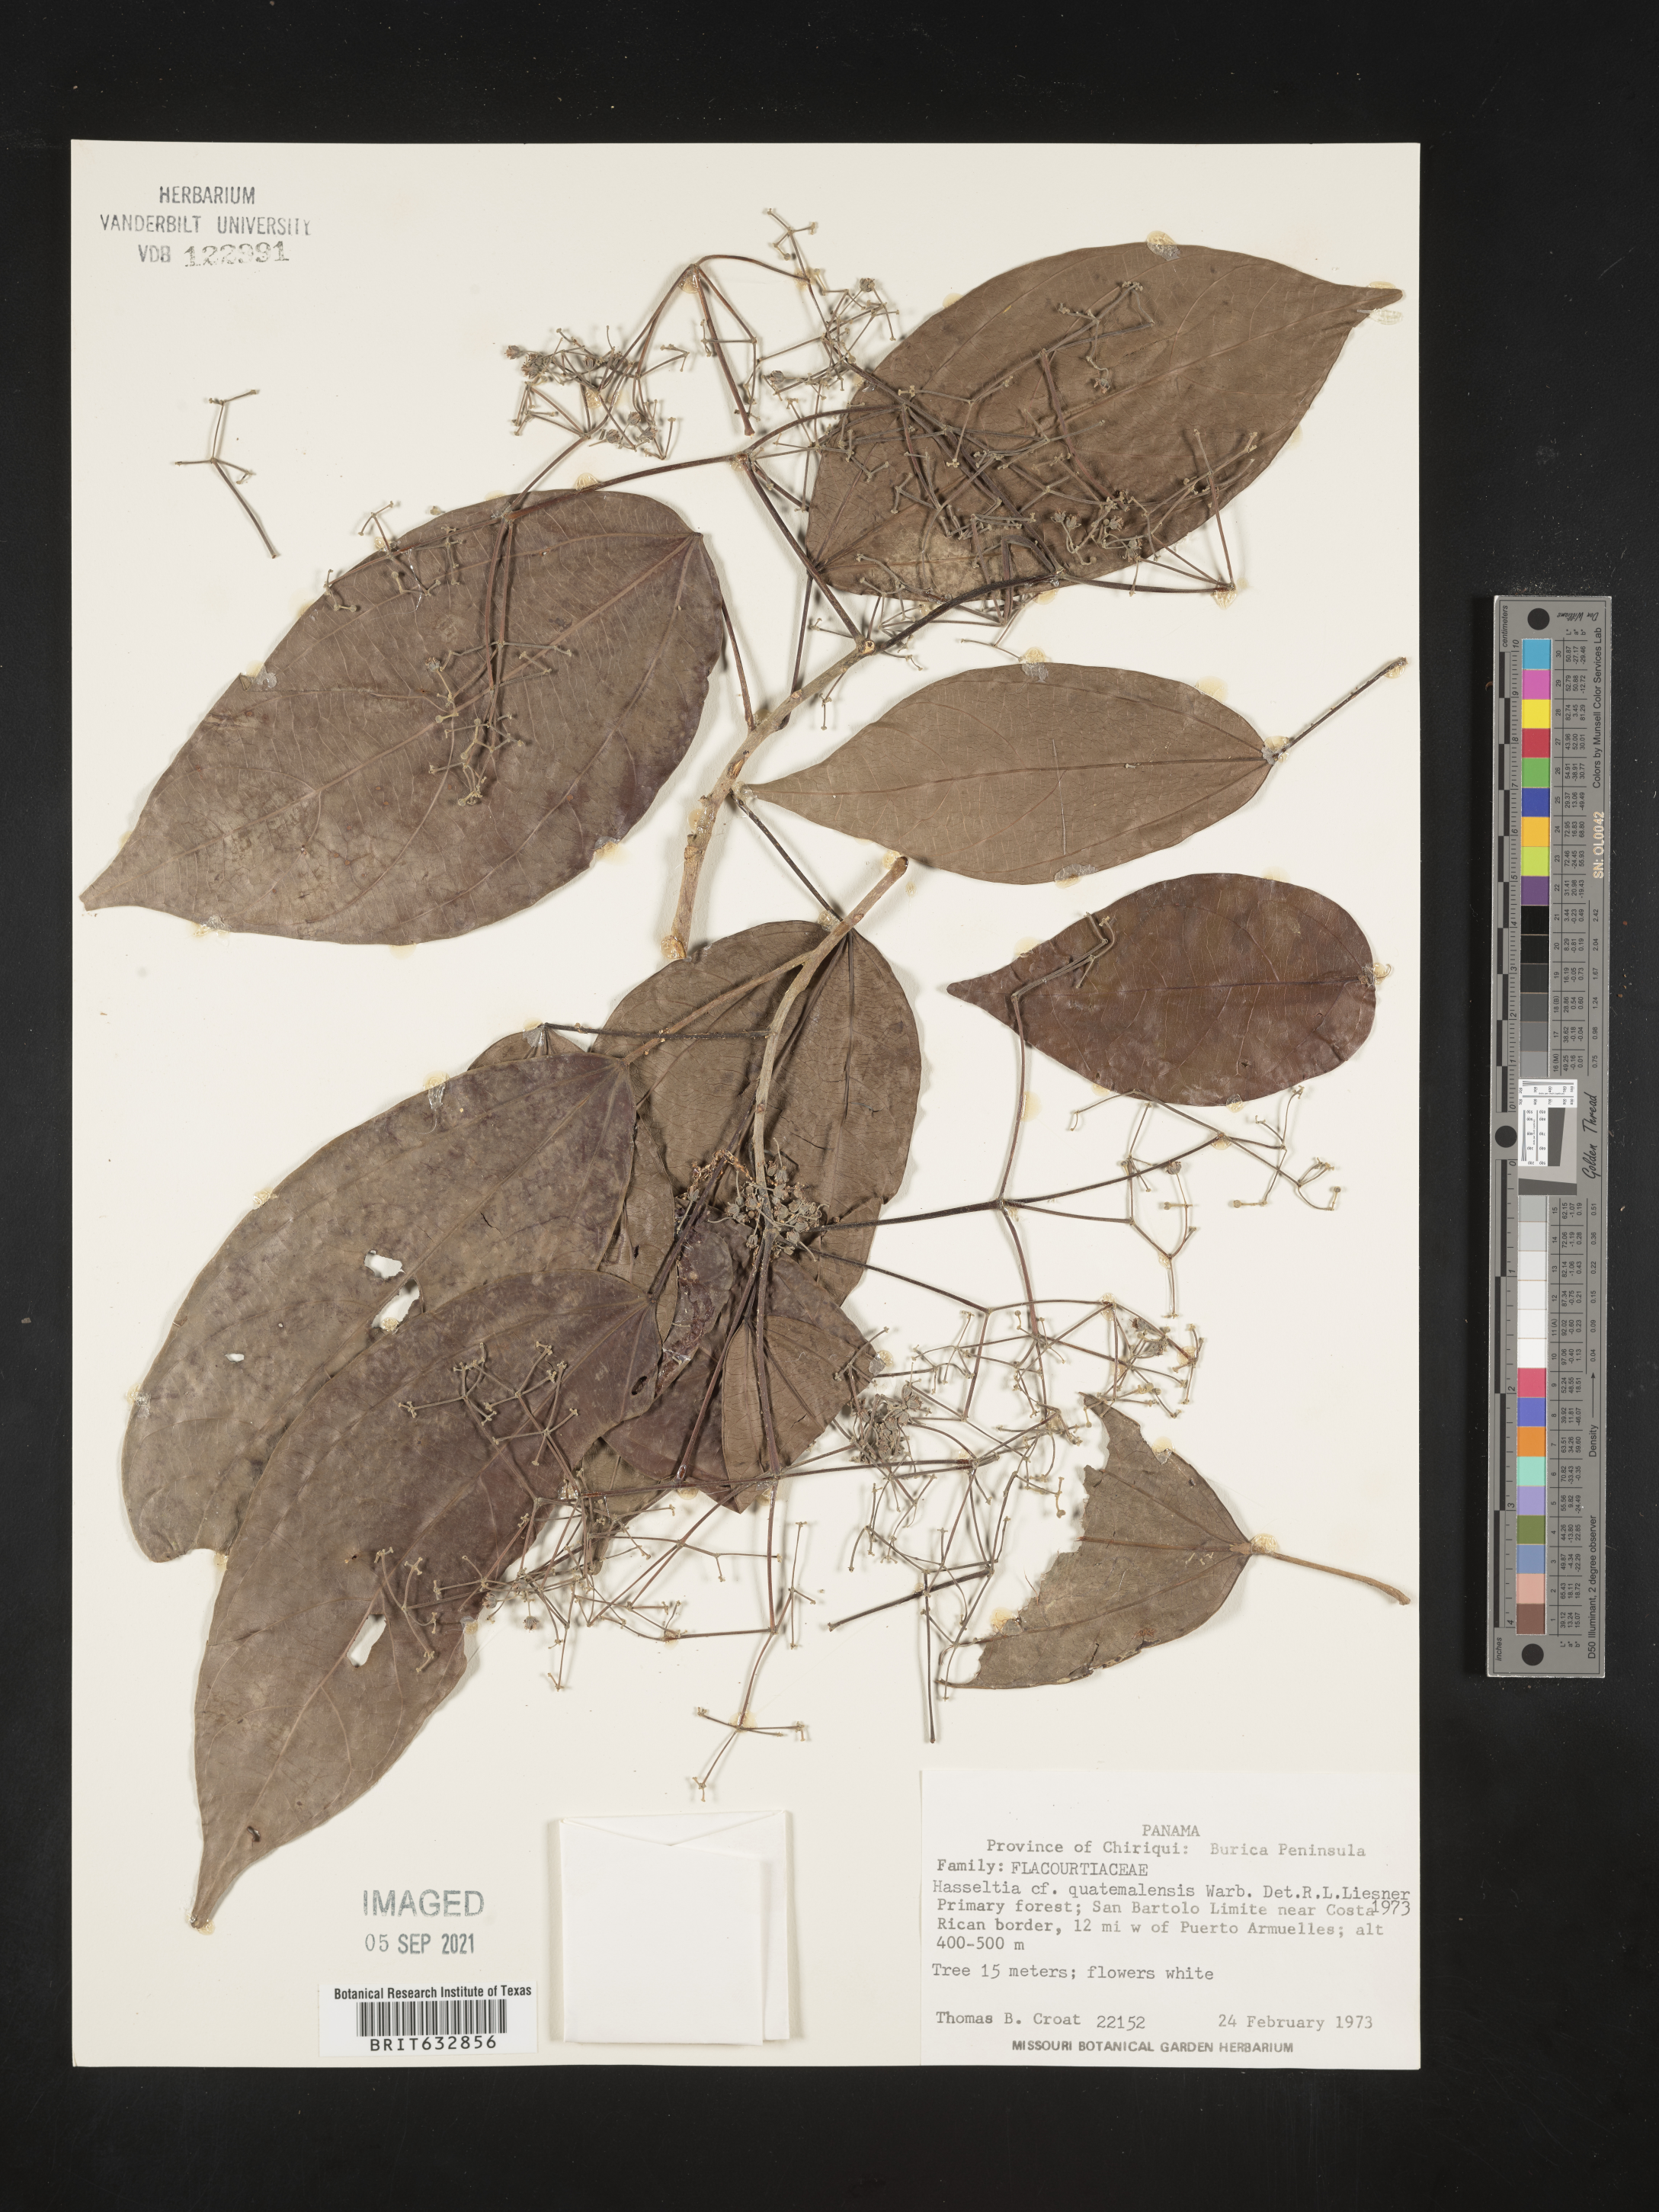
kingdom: Plantae
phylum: Tracheophyta
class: Magnoliopsida
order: Malpighiales
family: Salicaceae
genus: Hasseltia
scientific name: Hasseltia
